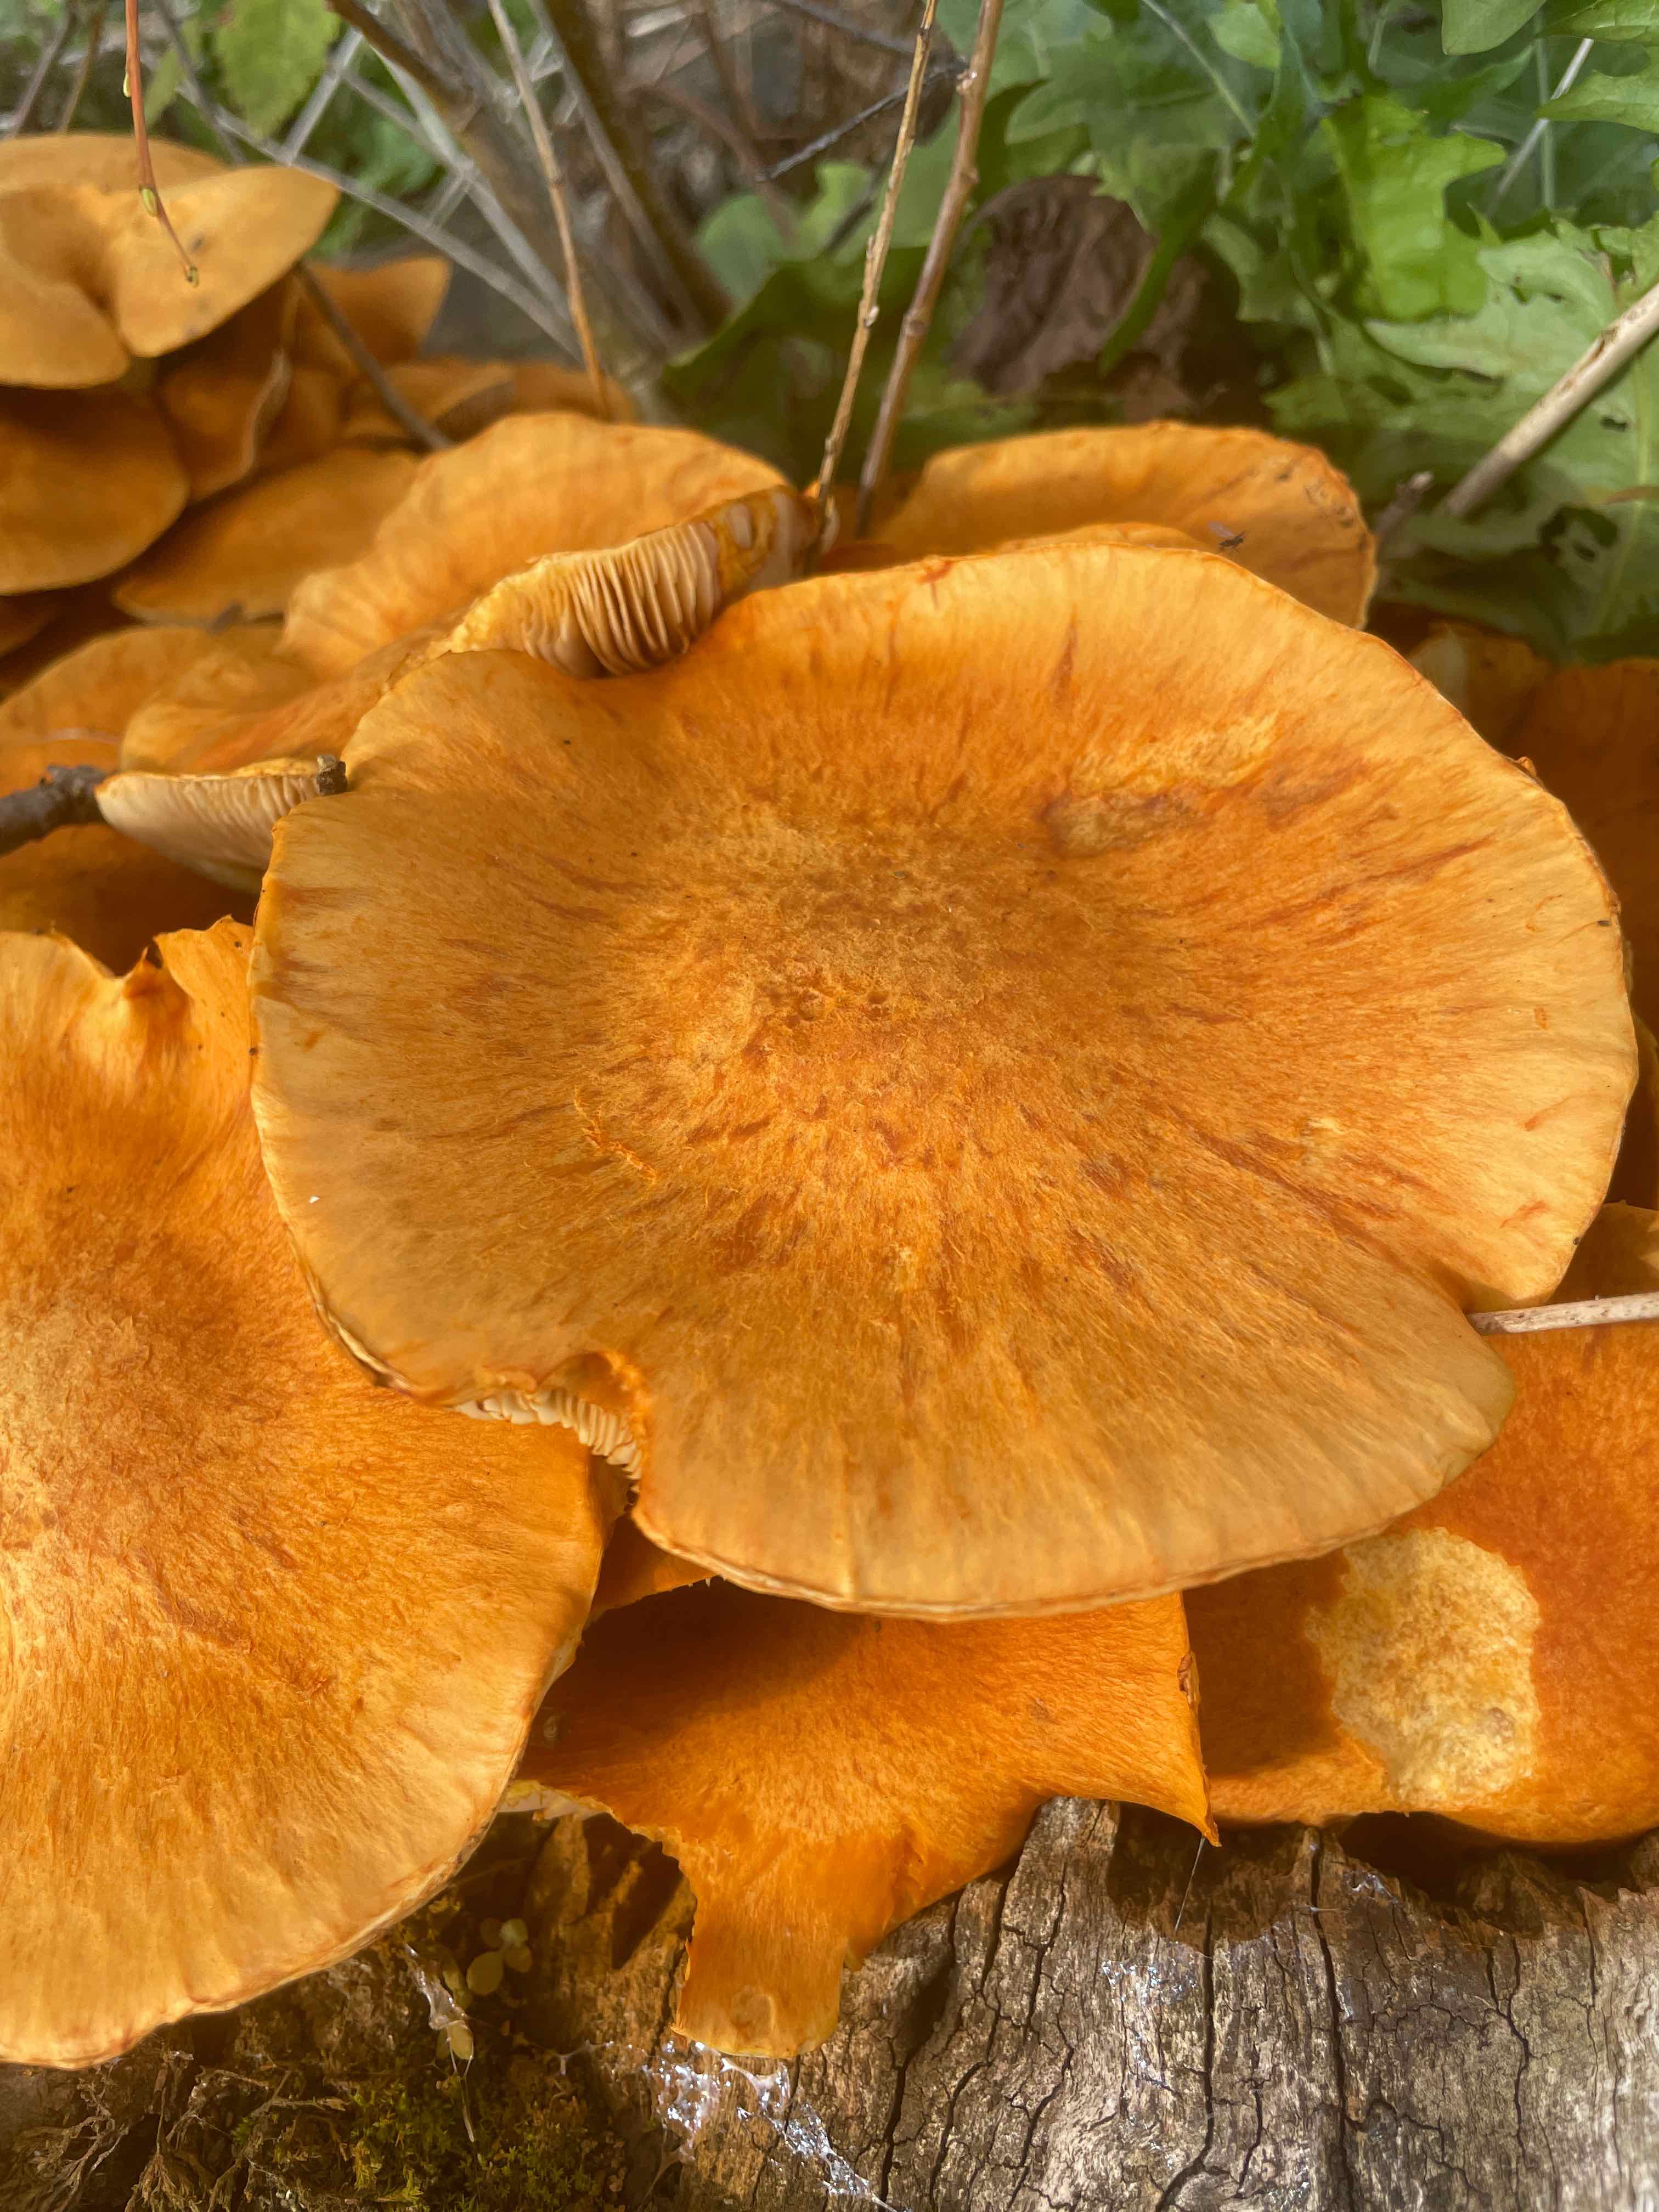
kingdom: Fungi
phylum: Basidiomycota
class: Agaricomycetes
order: Agaricales
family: Hymenogastraceae
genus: Gymnopilus
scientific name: Gymnopilus spectabilis
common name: fibret flammehat
